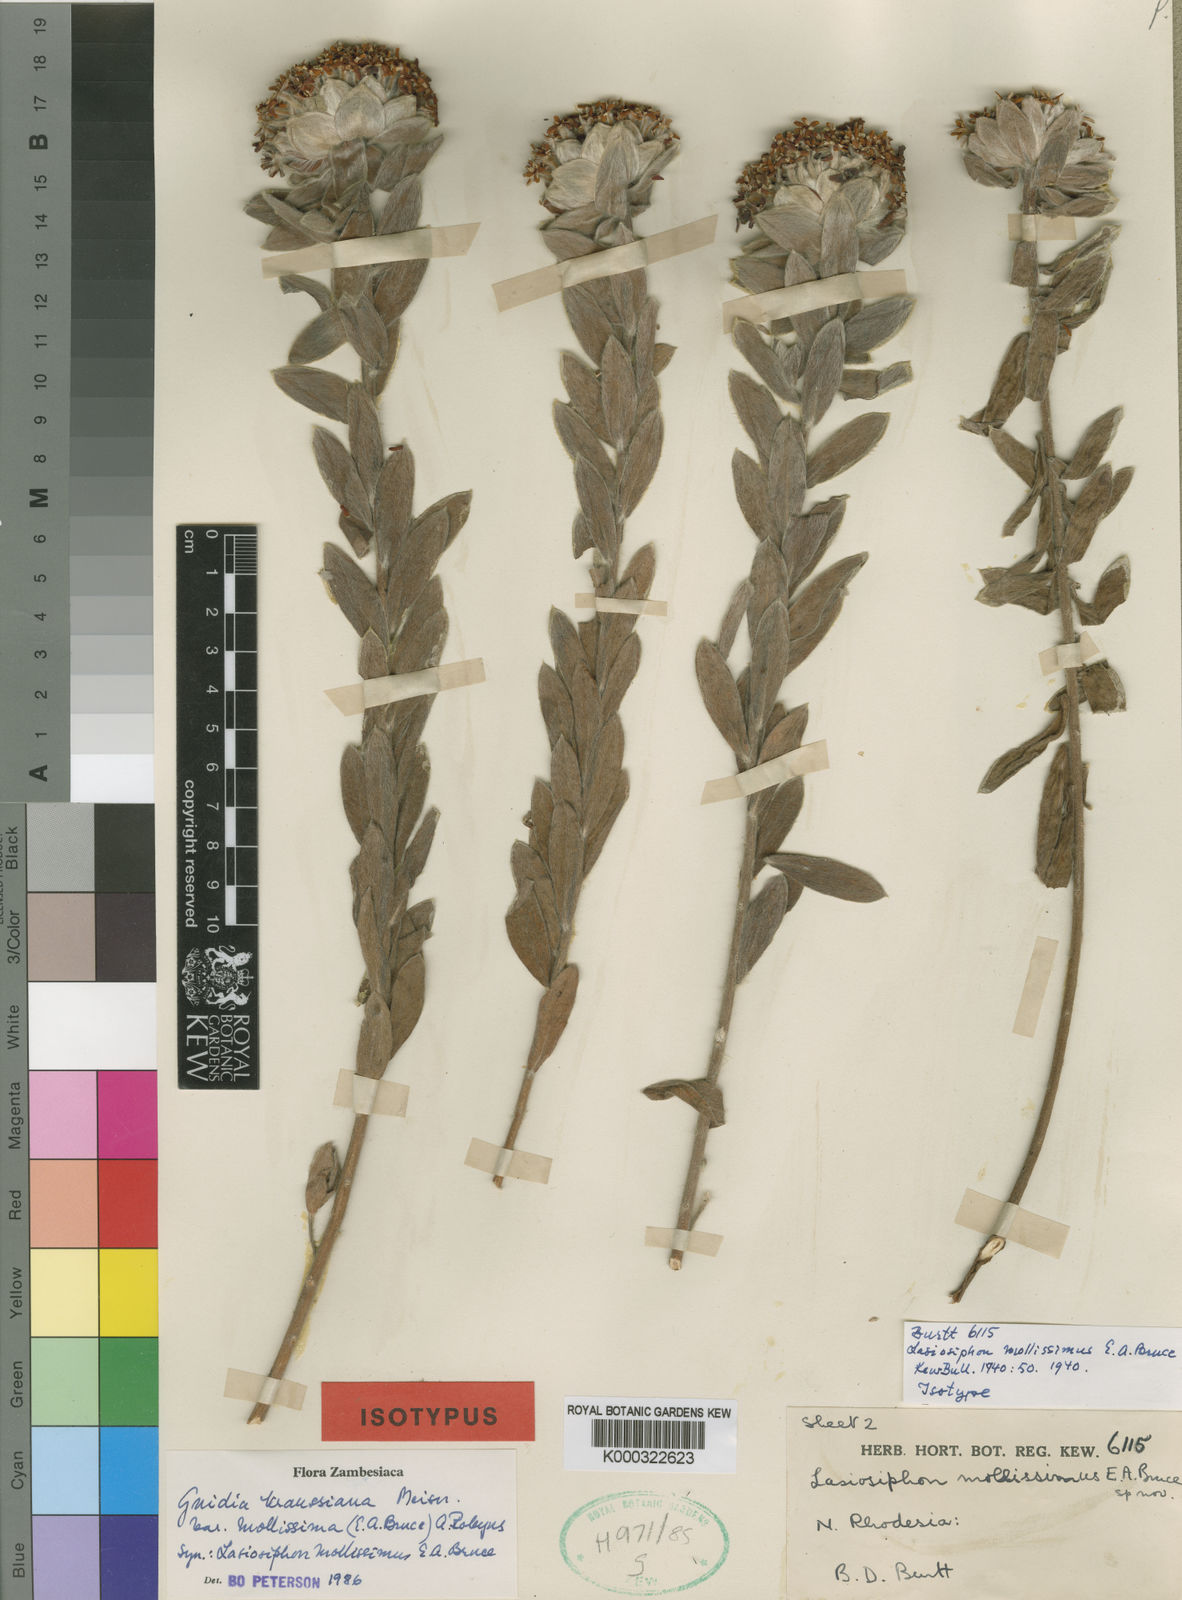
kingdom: Plantae
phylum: Tracheophyta
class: Magnoliopsida
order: Malvales
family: Thymelaeaceae
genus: Gnidia
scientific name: Gnidia kraussiana
